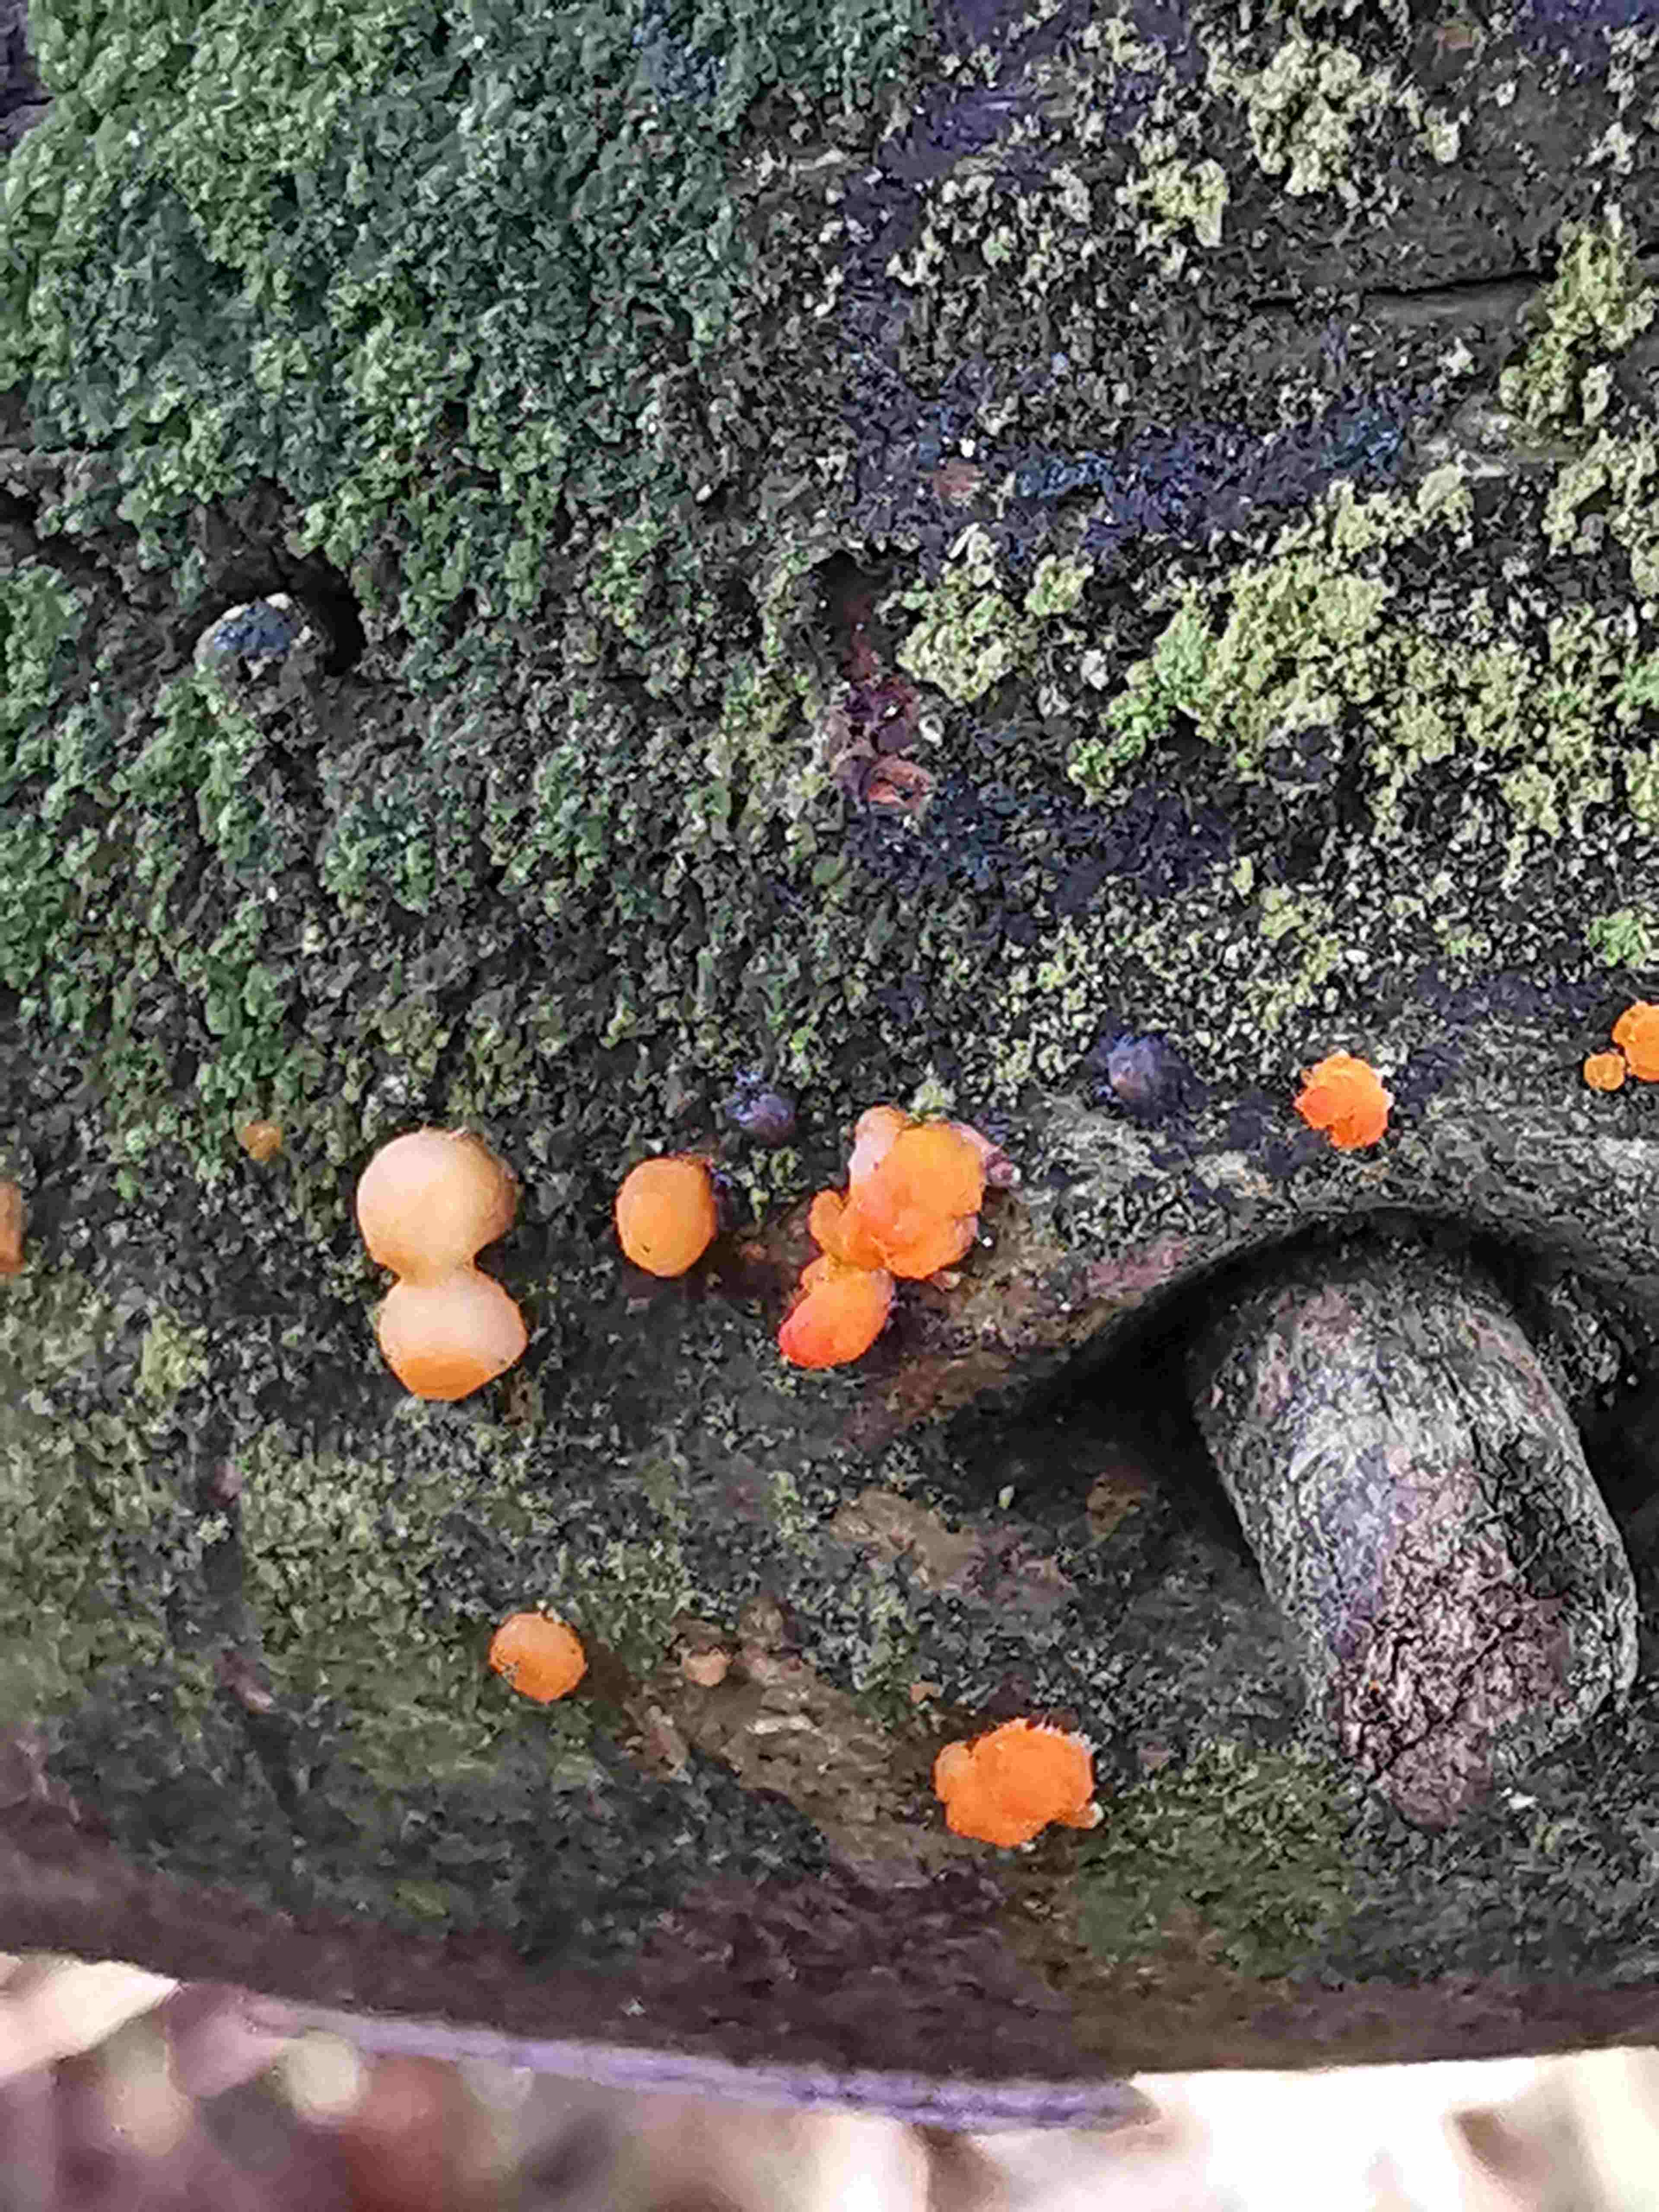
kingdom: Fungi
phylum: Basidiomycota
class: Dacrymycetes
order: Dacrymycetales
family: Dacrymycetaceae
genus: Dacrymyces
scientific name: Dacrymyces stillatus
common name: almindelig tåresvamp
